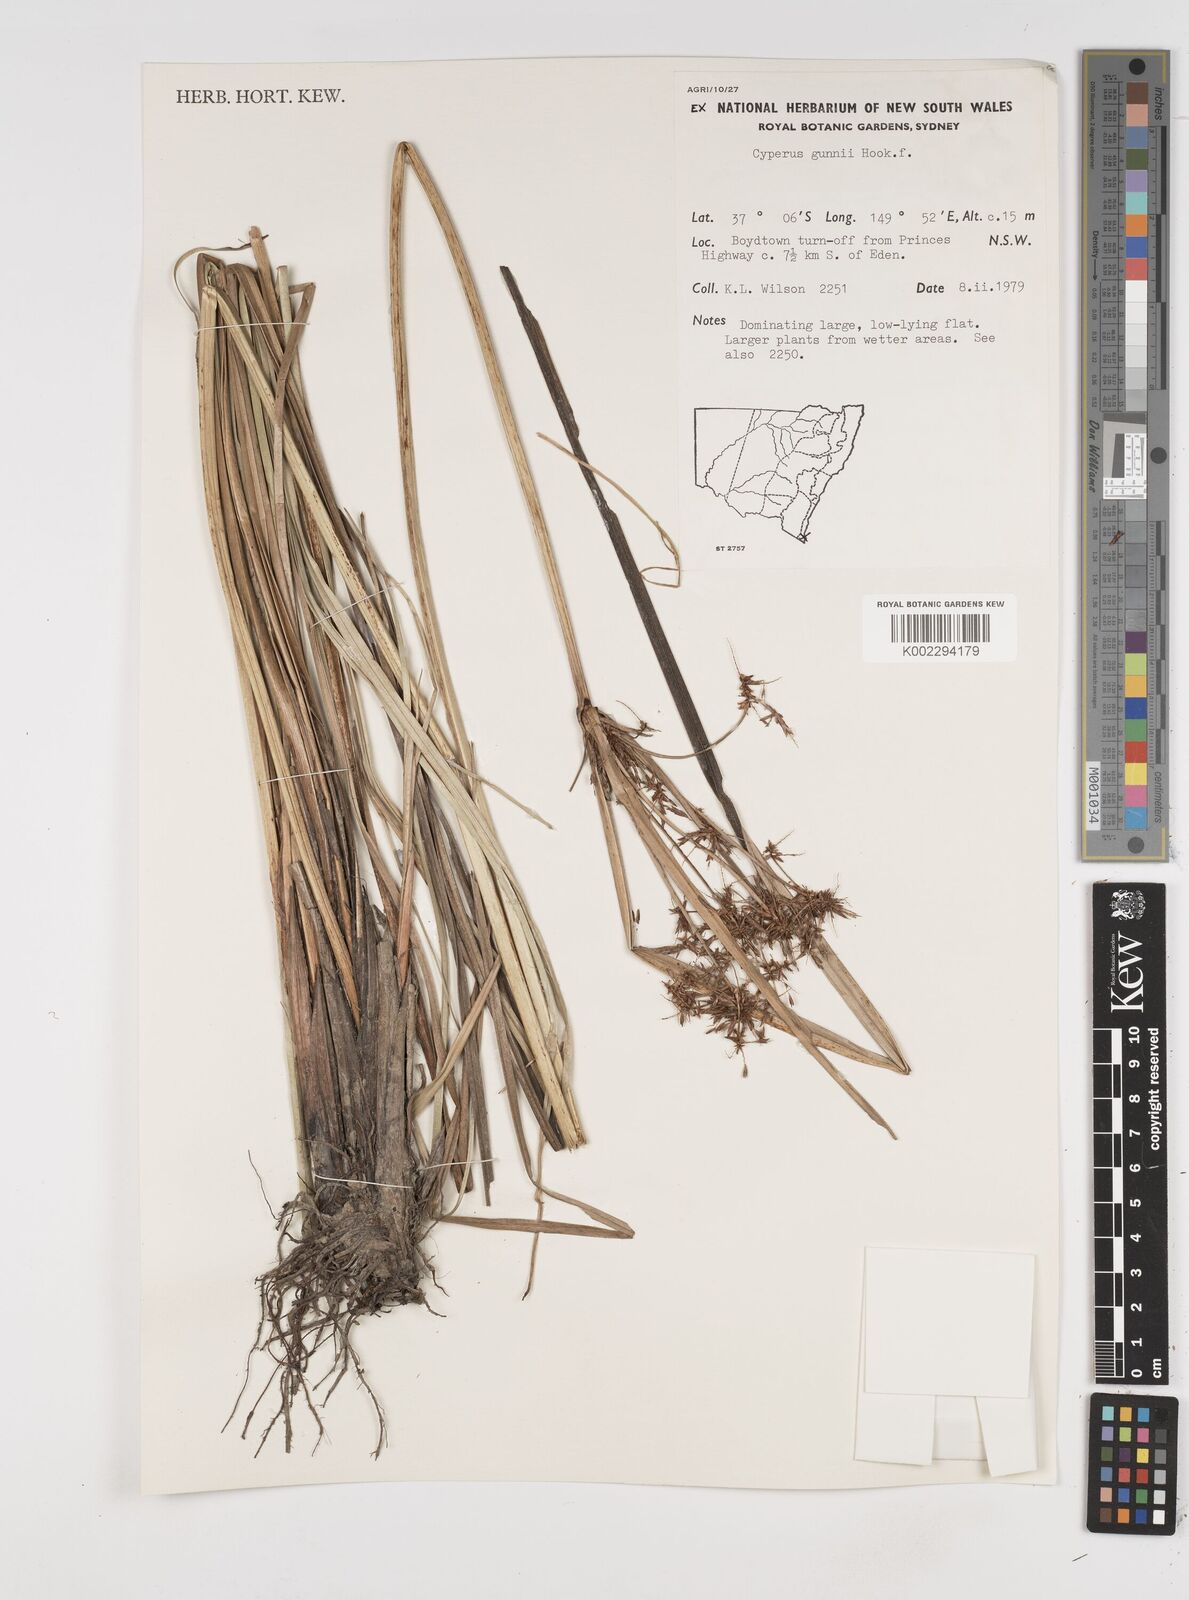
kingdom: Plantae
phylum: Tracheophyta
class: Liliopsida
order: Poales
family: Cyperaceae
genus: Cyperus
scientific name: Cyperus gunnii
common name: Flecked flat-sedge
